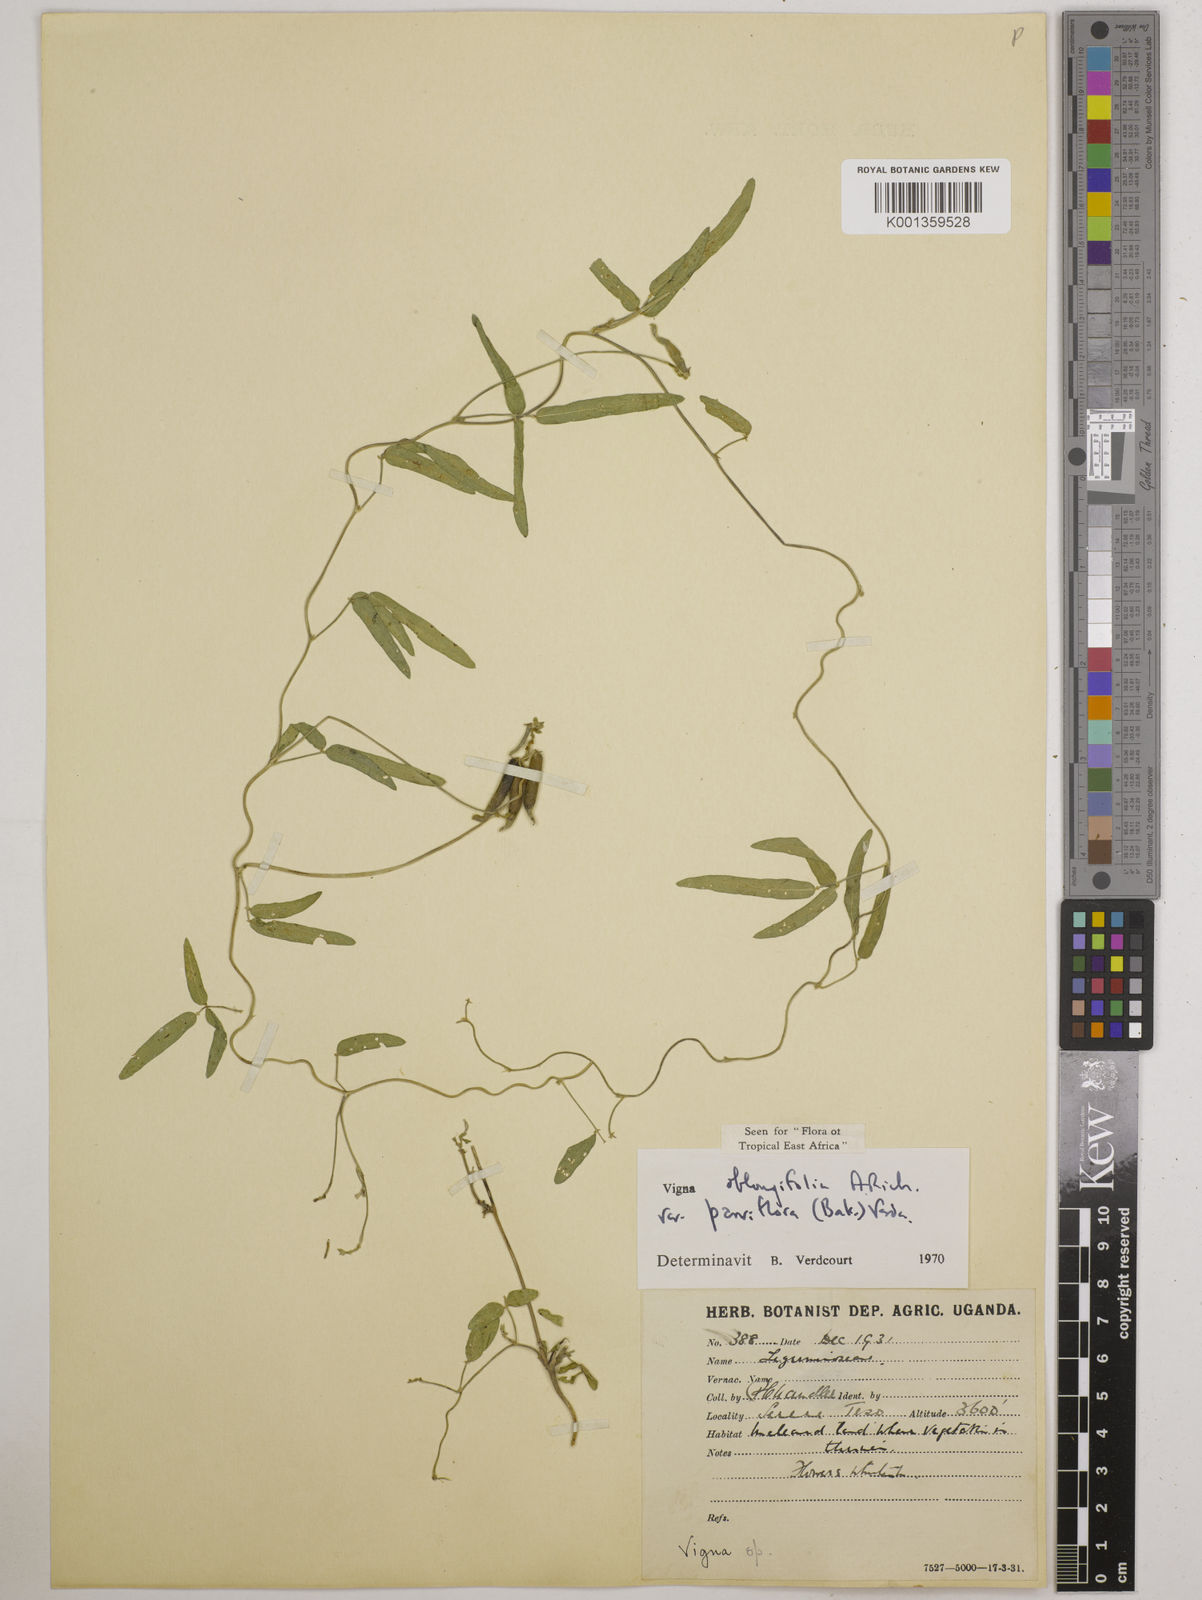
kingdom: Plantae
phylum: Tracheophyta
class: Magnoliopsida
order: Fabales
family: Fabaceae
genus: Vigna
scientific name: Vigna
